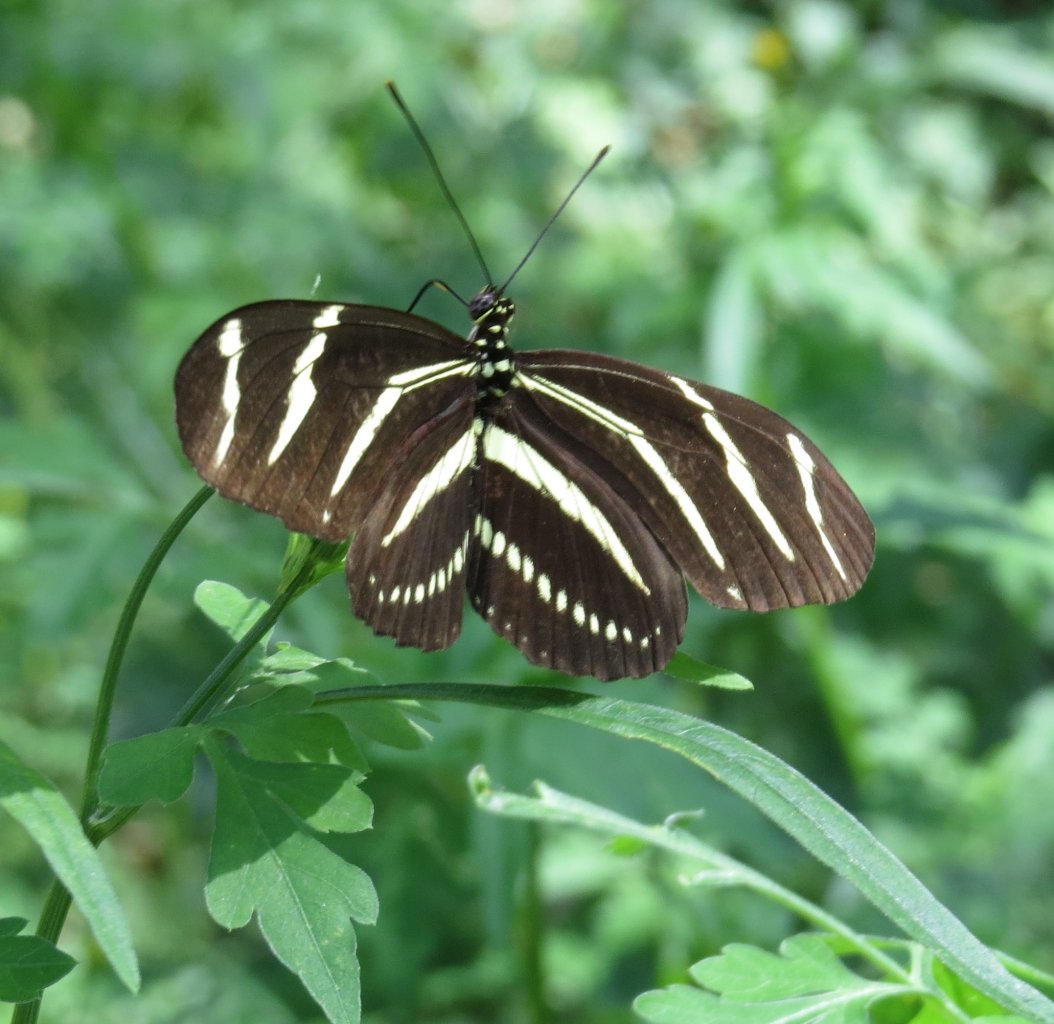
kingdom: Animalia
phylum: Arthropoda
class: Insecta
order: Lepidoptera
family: Nymphalidae
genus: Heliconius
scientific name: Heliconius charithonia
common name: Zebra Longwing
